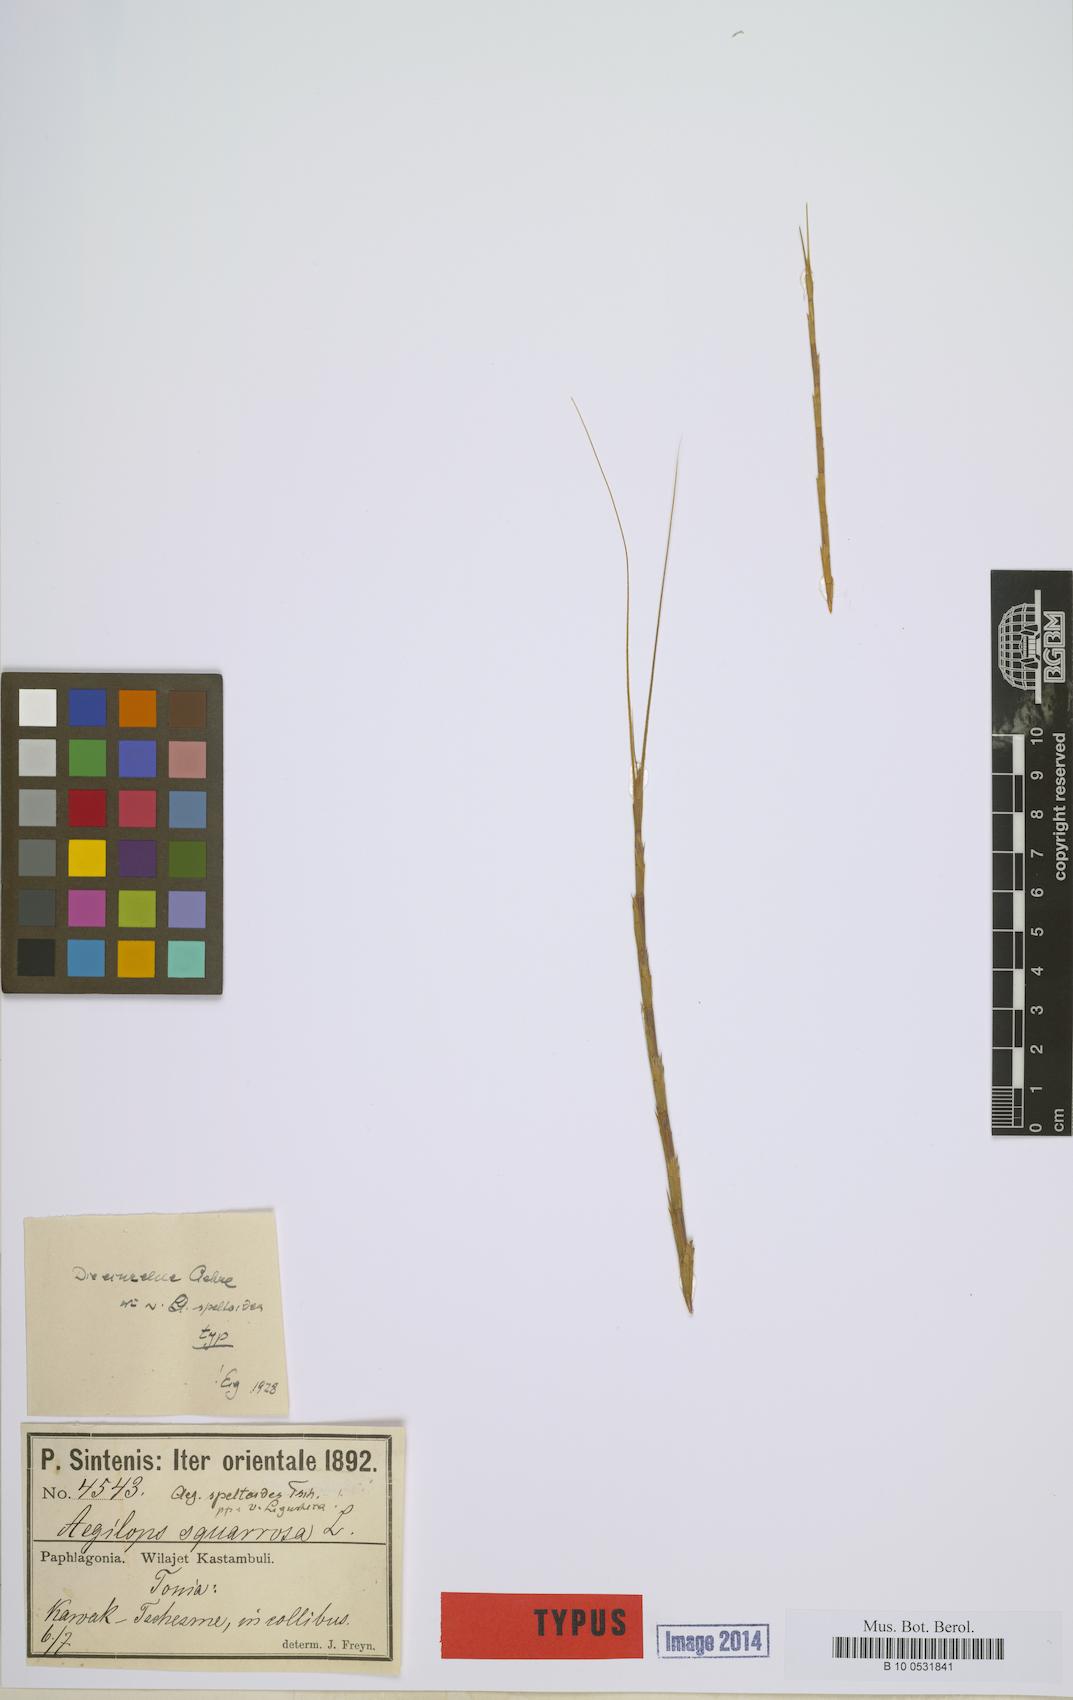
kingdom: Plantae
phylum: Tracheophyta
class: Liliopsida
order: Poales
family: Poaceae
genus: Aegilops
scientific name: Aegilops speltoides
